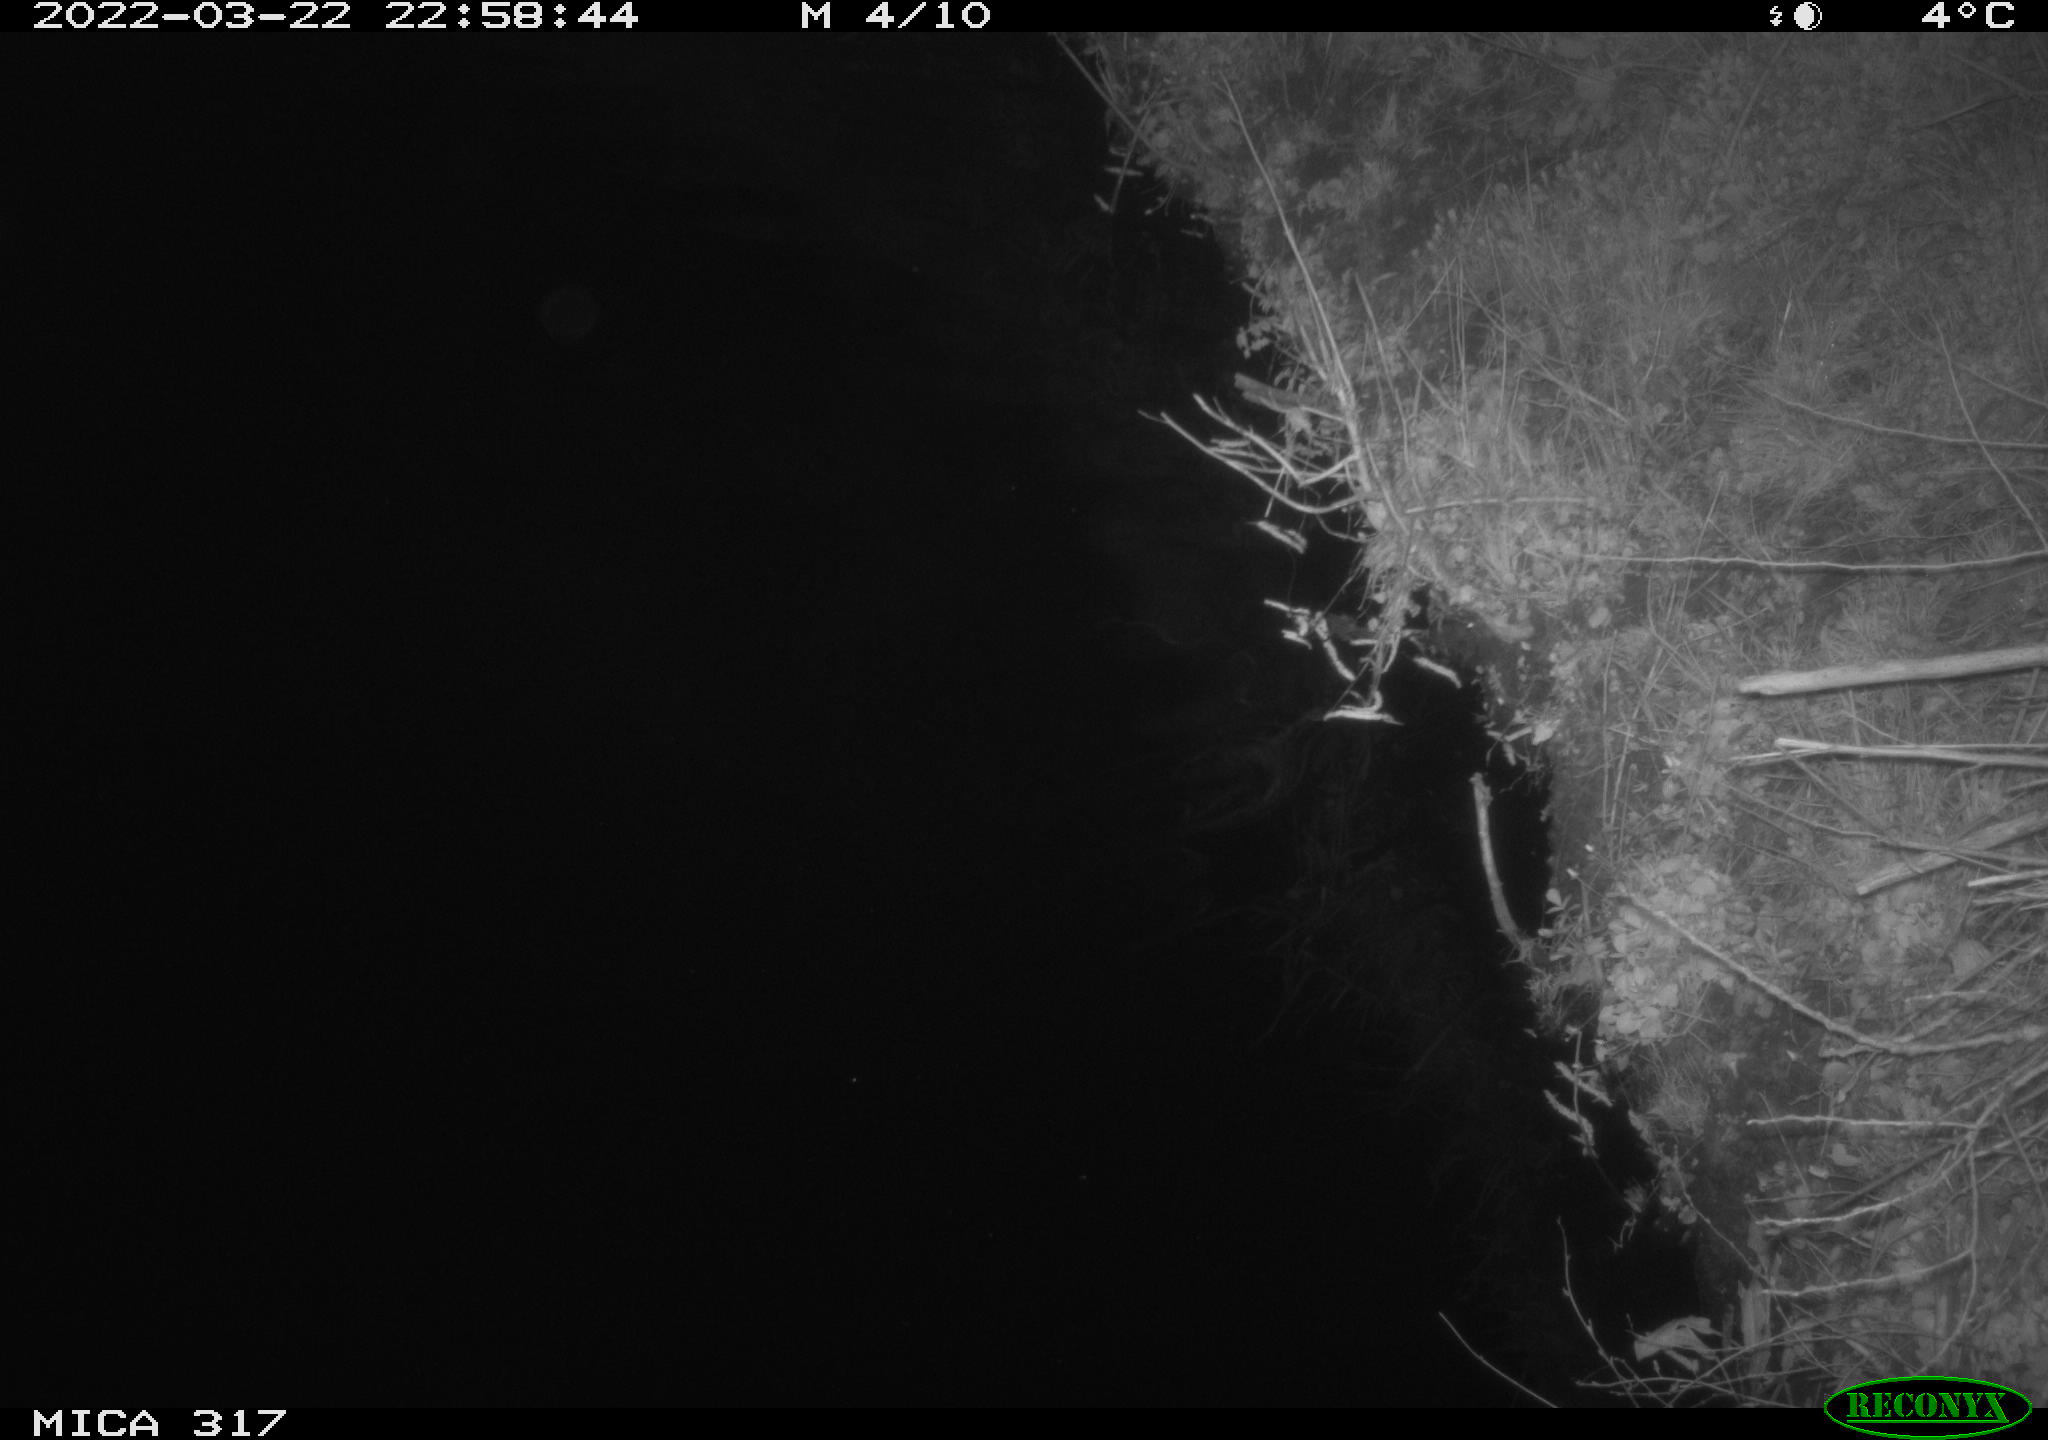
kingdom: Animalia
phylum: Chordata
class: Aves
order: Anseriformes
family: Anatidae
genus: Anas
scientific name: Anas platyrhynchos
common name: Mallard
